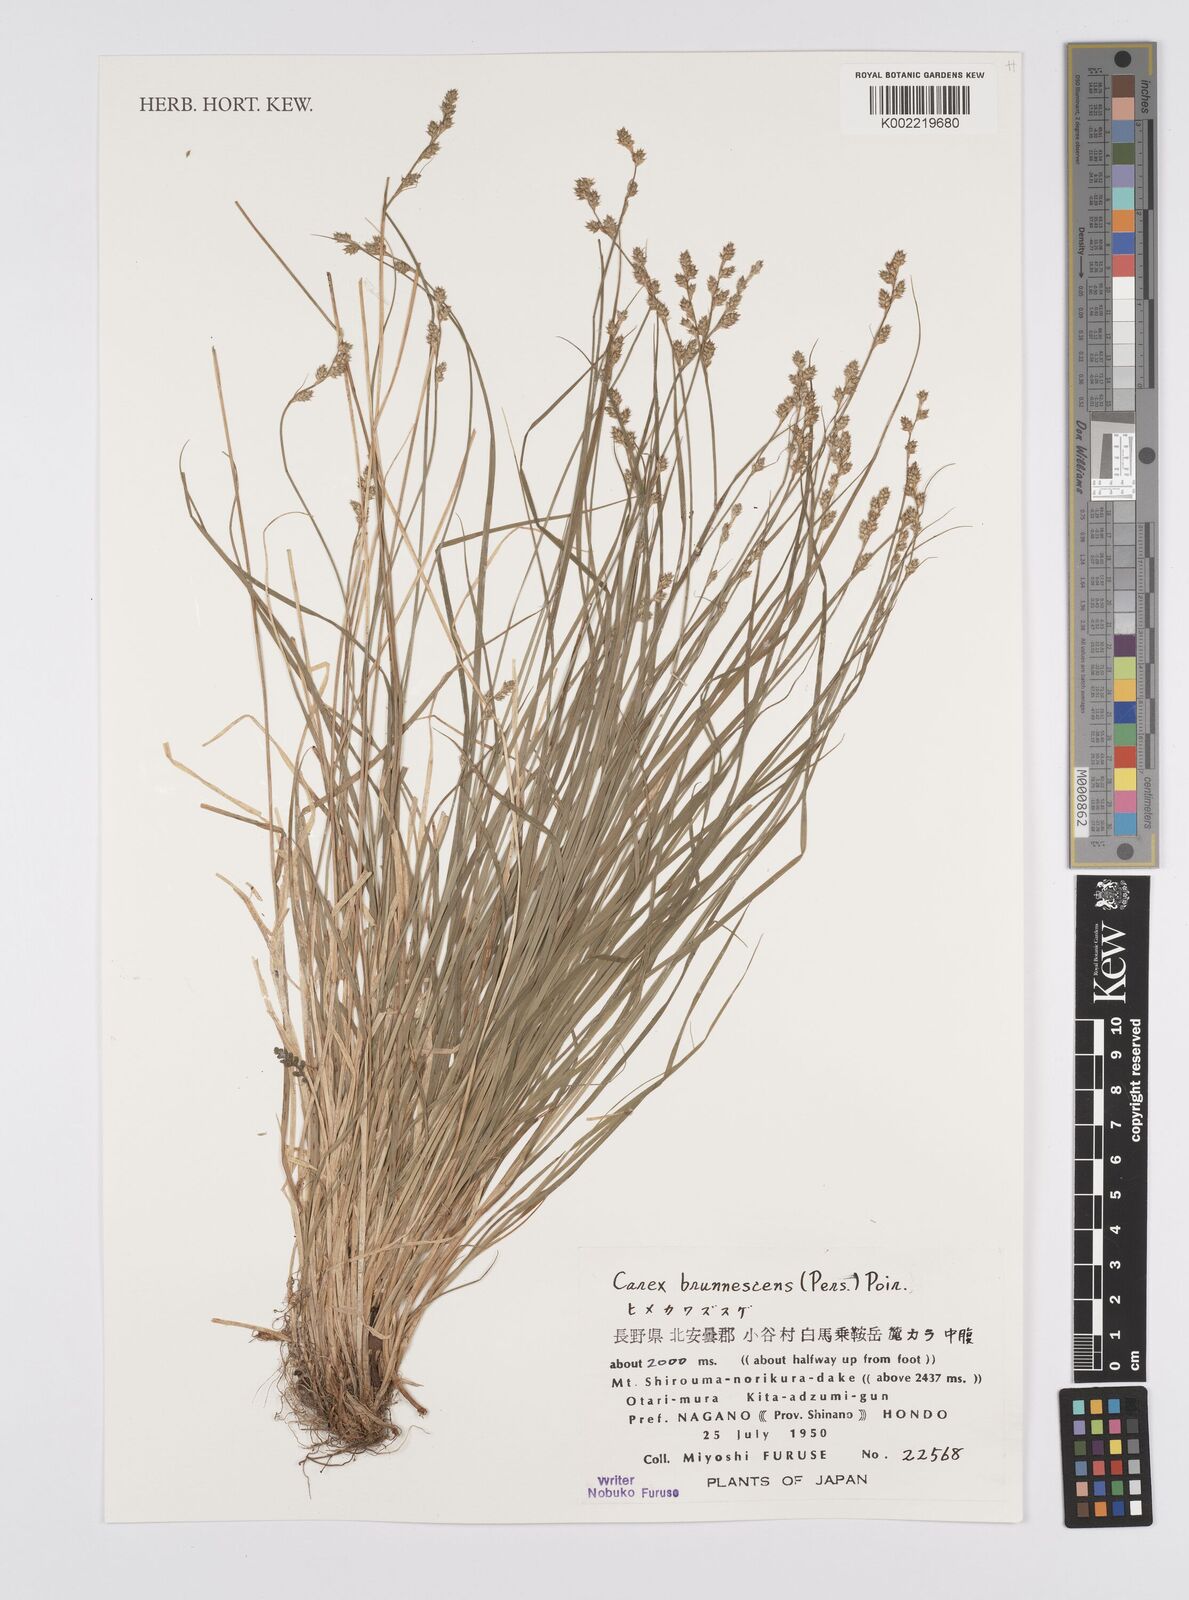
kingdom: Plantae
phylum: Tracheophyta
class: Liliopsida
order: Poales
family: Cyperaceae
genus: Carex
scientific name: Carex brunnescens
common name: Brown sedge
